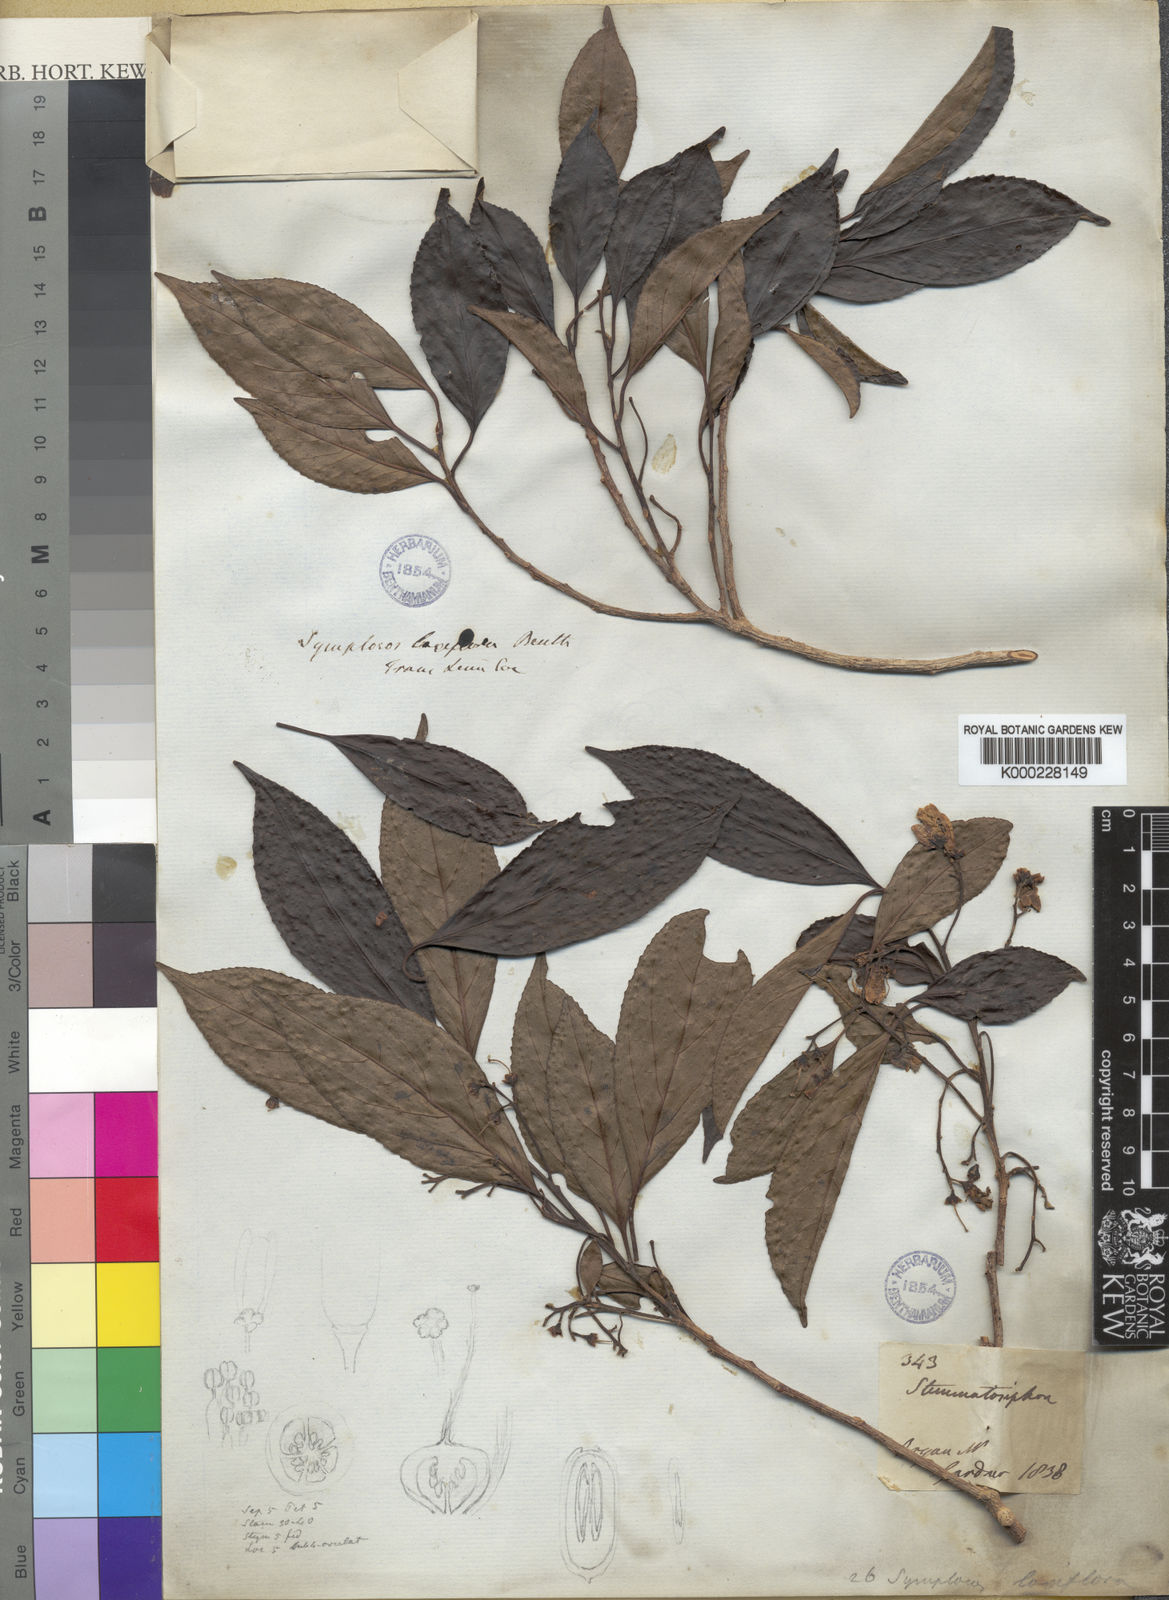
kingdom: Plantae
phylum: Tracheophyta
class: Magnoliopsida
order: Ericales
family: Symplocaceae
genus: Symplocos
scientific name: Symplocos laxiflora
